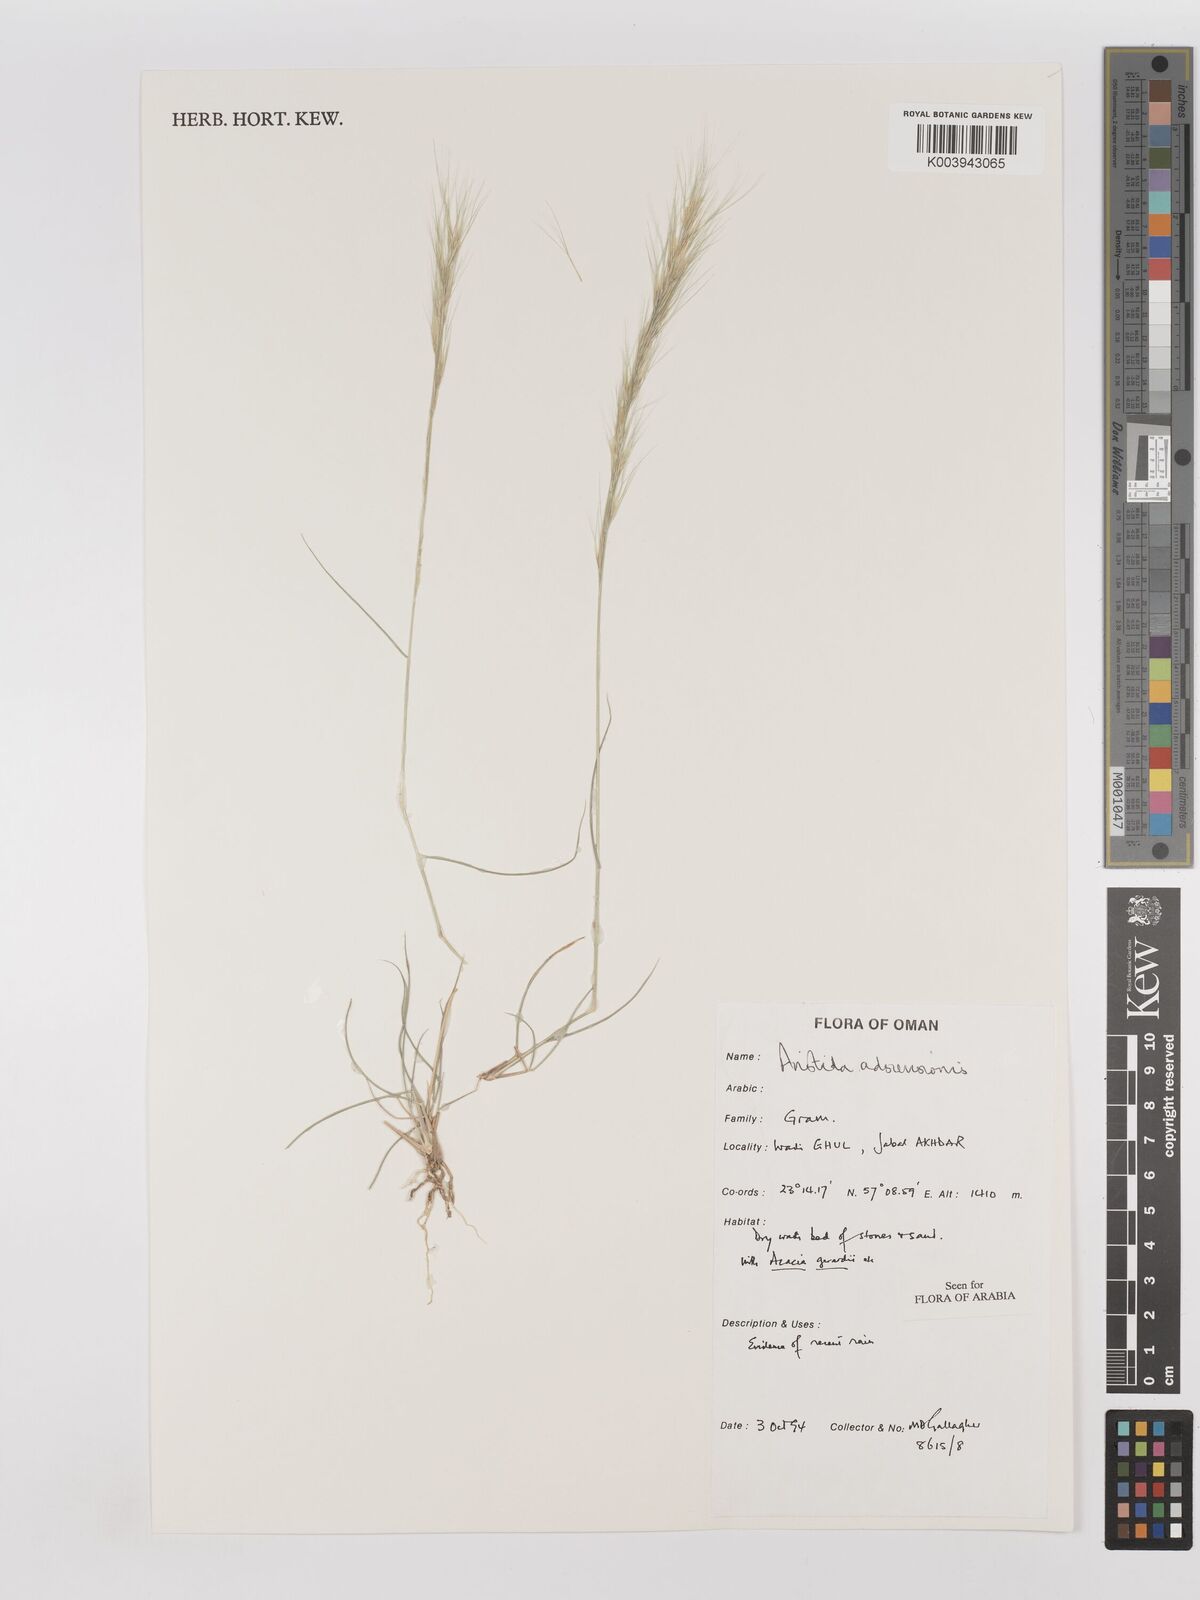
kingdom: Plantae
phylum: Tracheophyta
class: Liliopsida
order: Poales
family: Poaceae
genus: Aristida
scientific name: Aristida adscensionis
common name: Sixweeks threeawn
